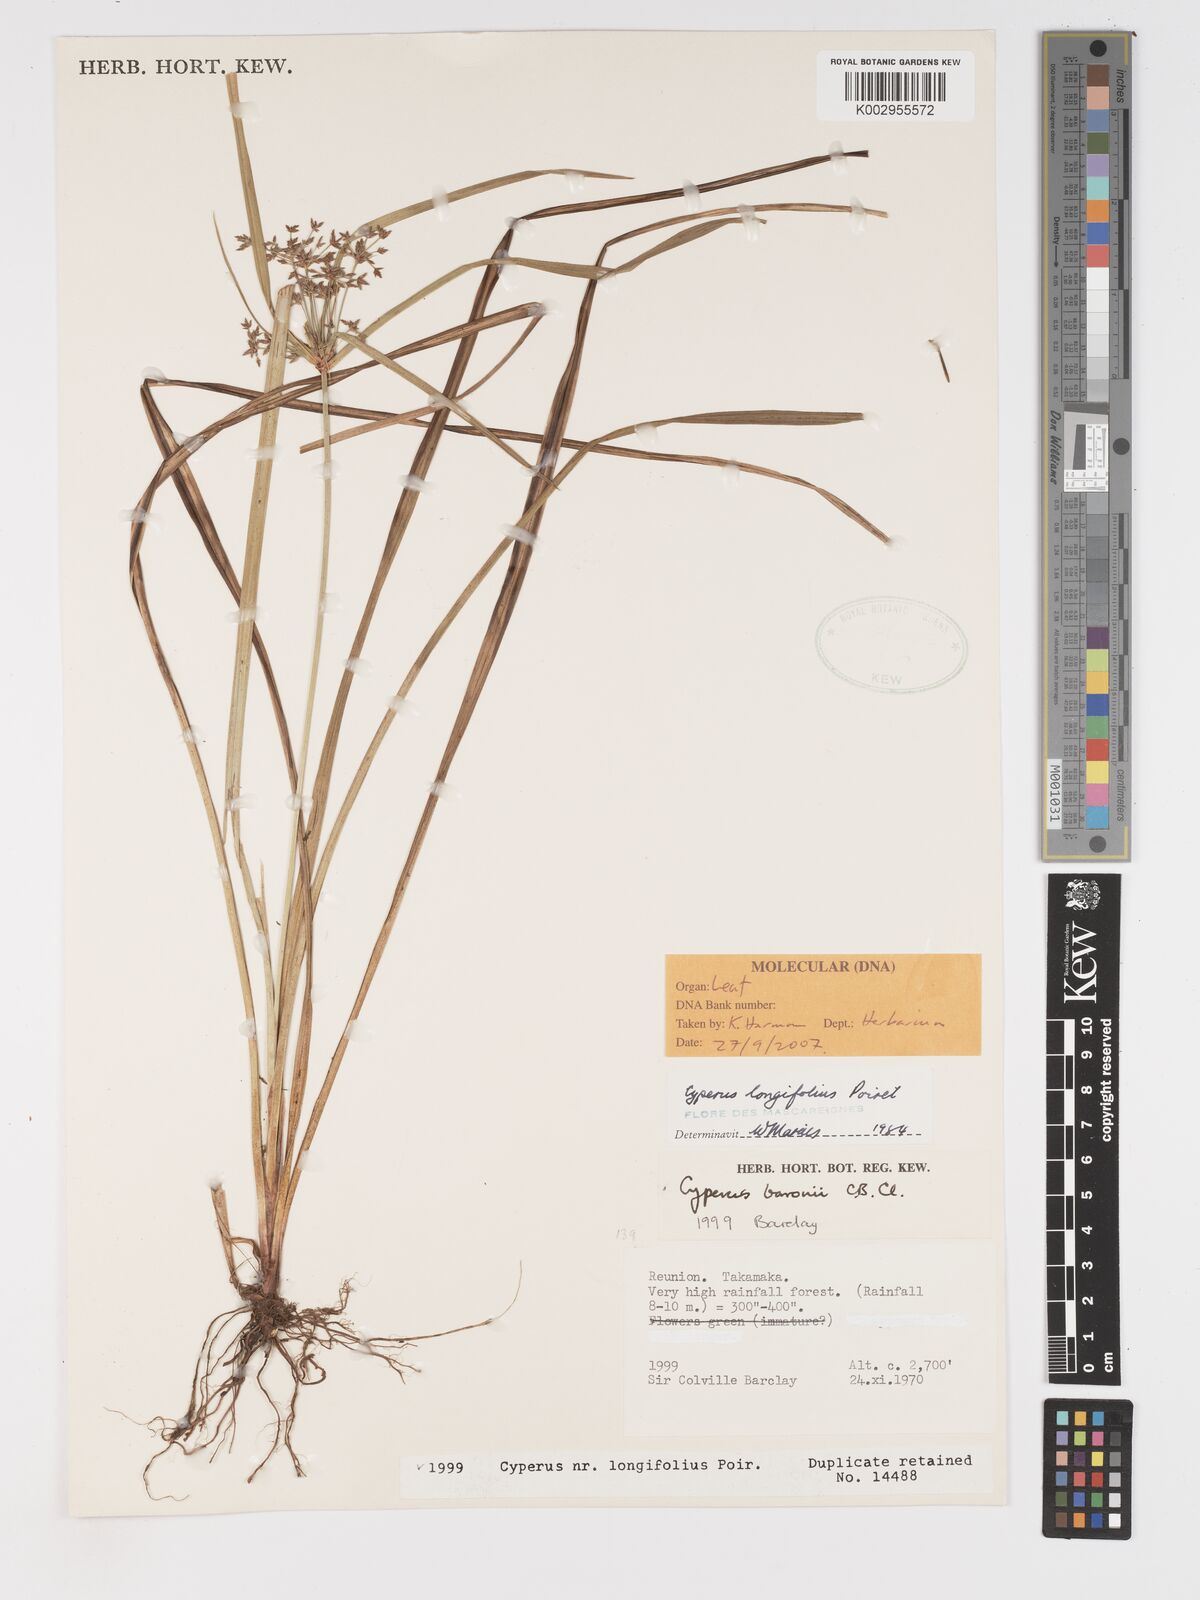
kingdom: Plantae
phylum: Tracheophyta
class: Liliopsida
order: Poales
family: Cyperaceae
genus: Cyperus
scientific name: Cyperus longifolius
